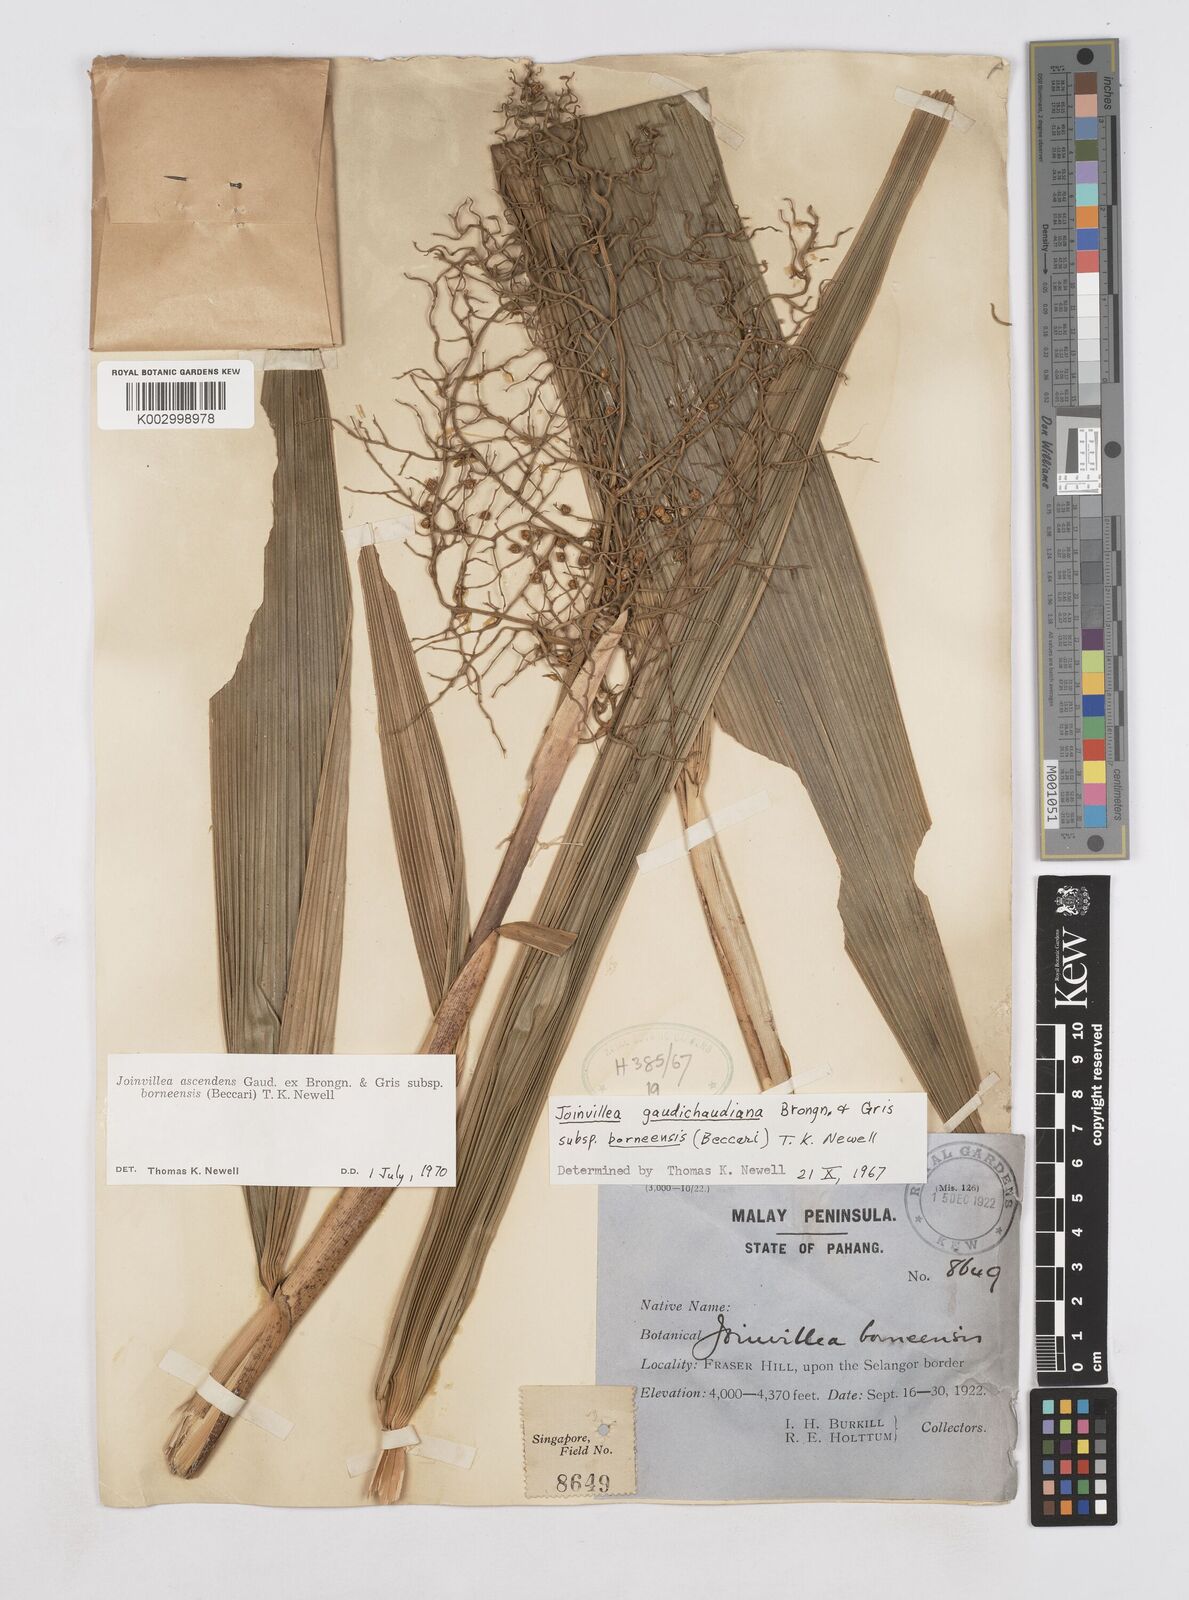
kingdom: Plantae
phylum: Tracheophyta
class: Liliopsida
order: Poales
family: Joinvilleaceae
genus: Joinvillea
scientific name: Joinvillea borneensis
